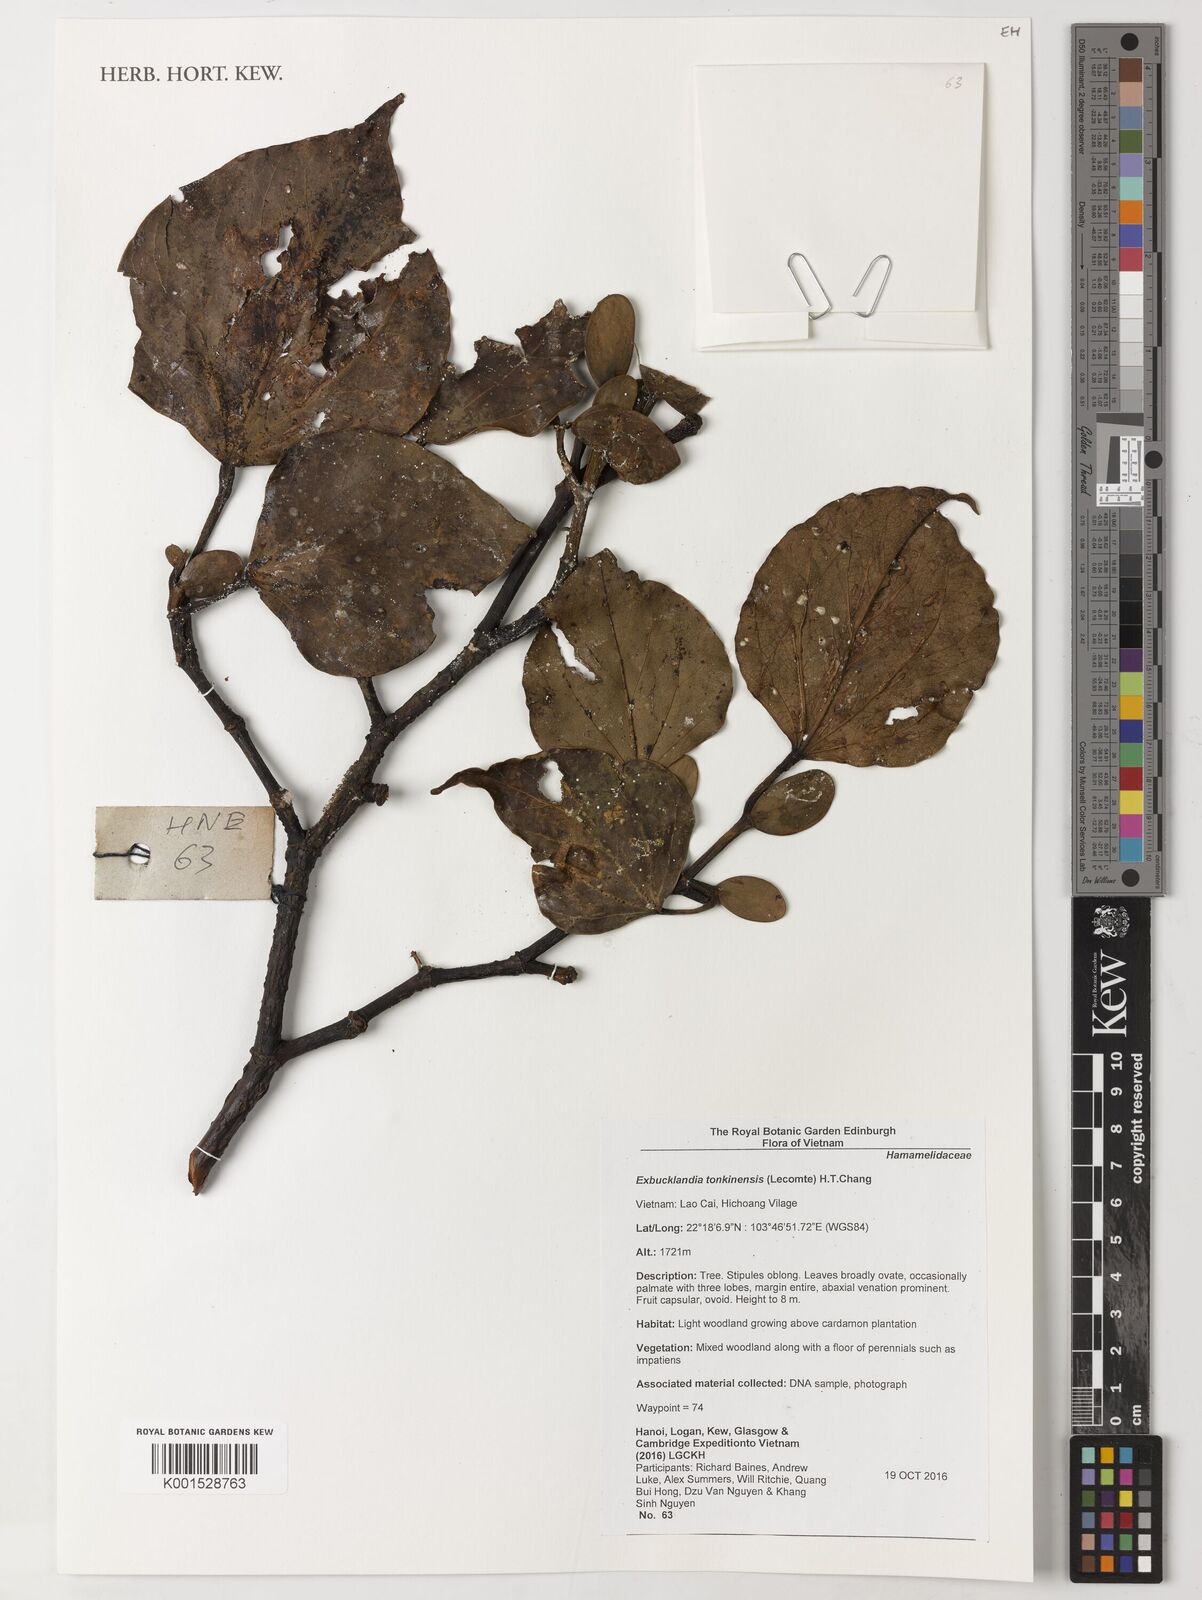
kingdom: Plantae
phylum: Tracheophyta
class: Magnoliopsida
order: Saxifragales
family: Hamamelidaceae
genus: Exbucklandia
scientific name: Exbucklandia tonkinensis
